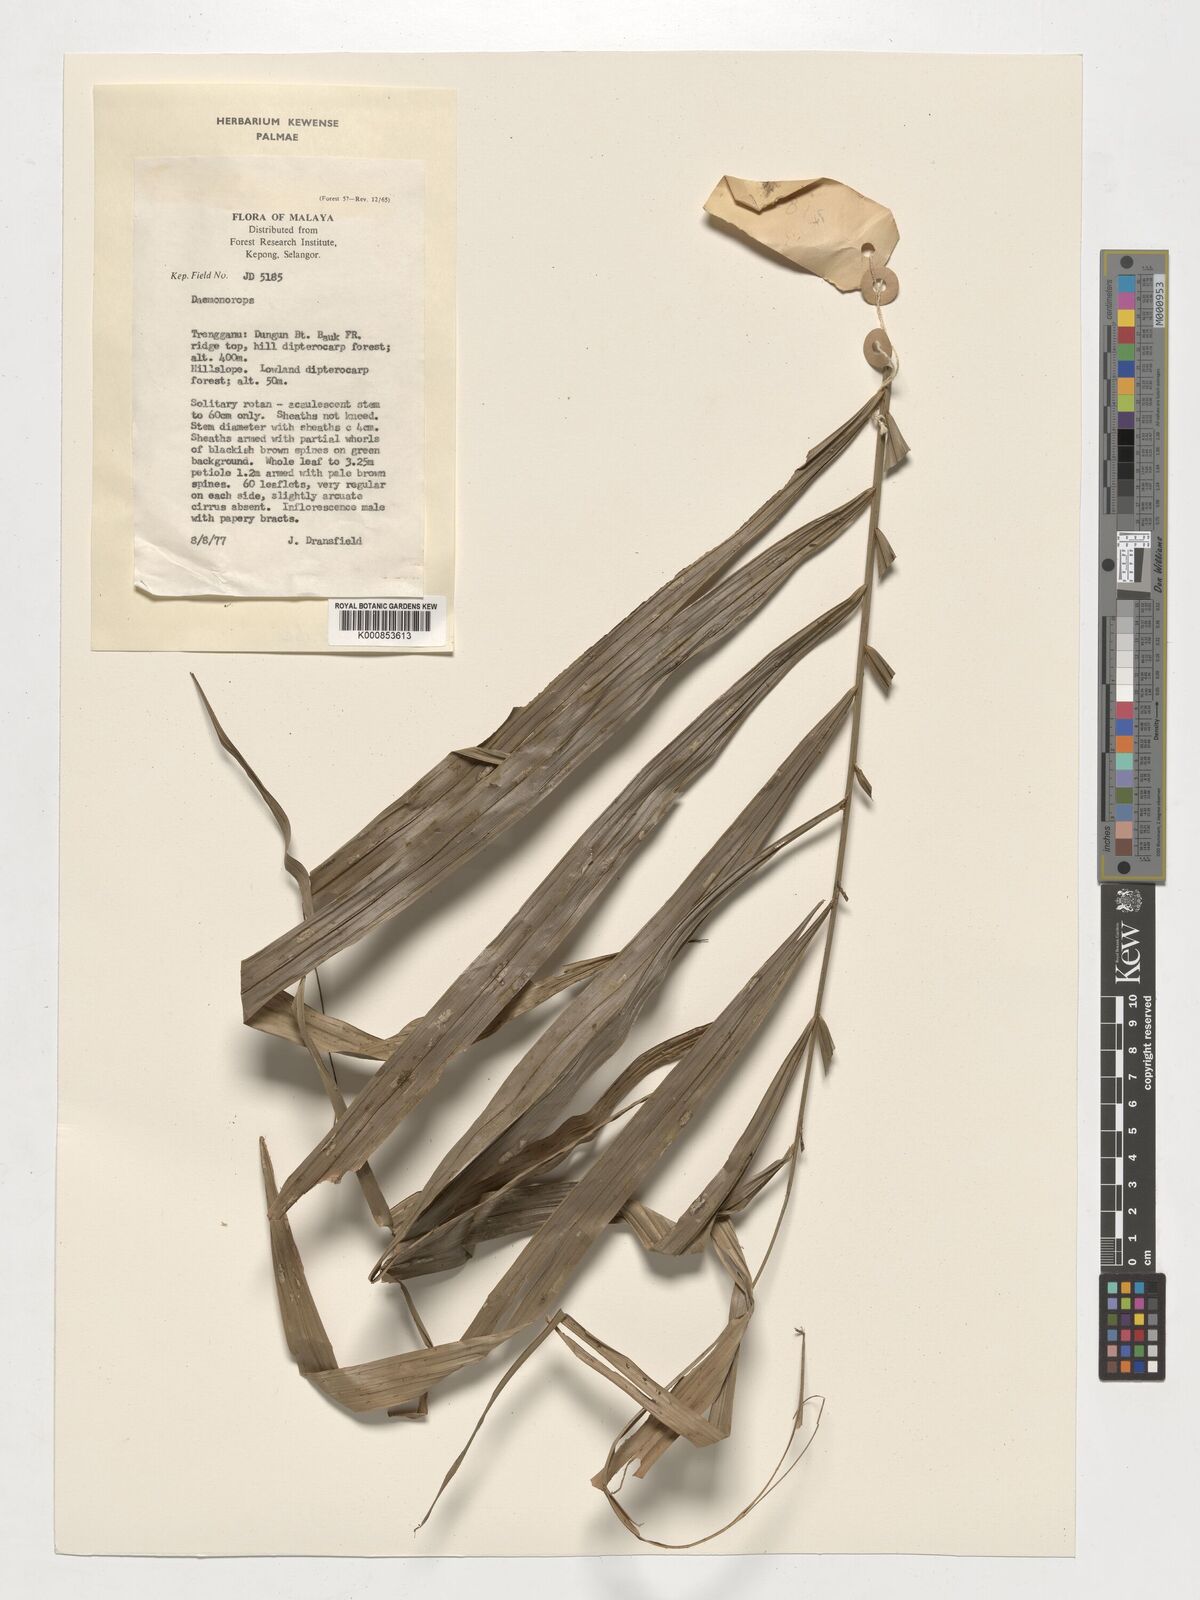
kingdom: Plantae
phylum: Tracheophyta
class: Liliopsida
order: Arecales
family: Arecaceae
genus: Daemonorops
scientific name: Daemonorops
